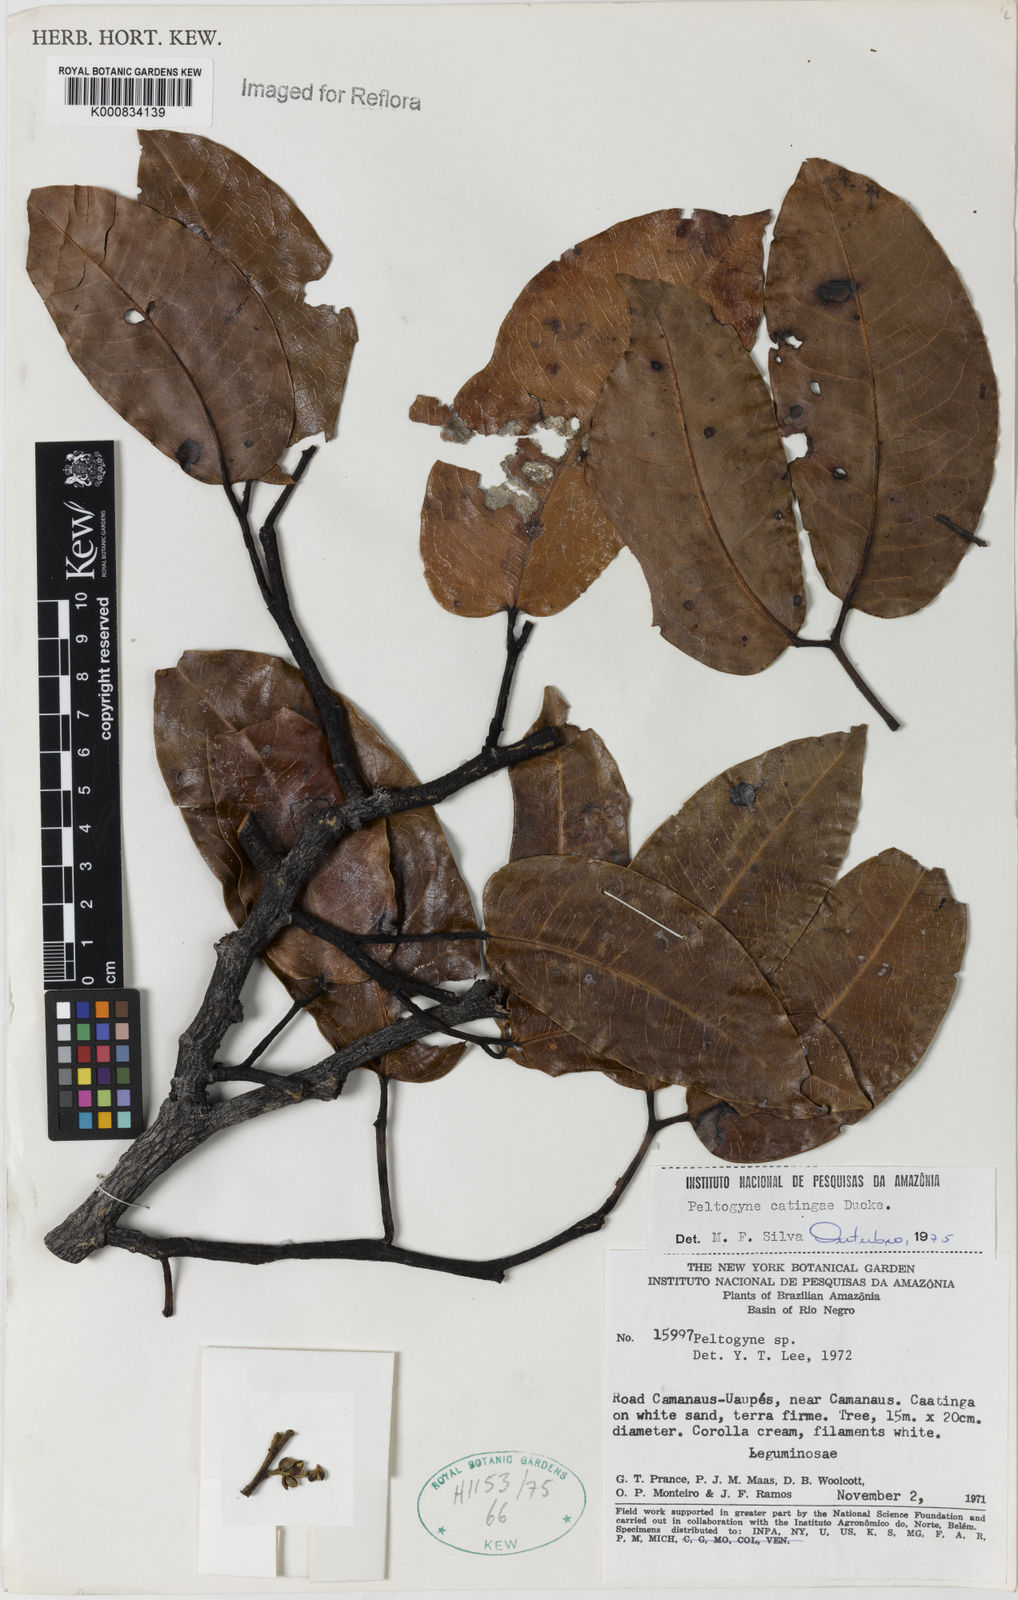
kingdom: Plantae
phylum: Tracheophyta
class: Magnoliopsida
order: Fabales
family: Fabaceae
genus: Peltogyne
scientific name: Peltogyne catingae
